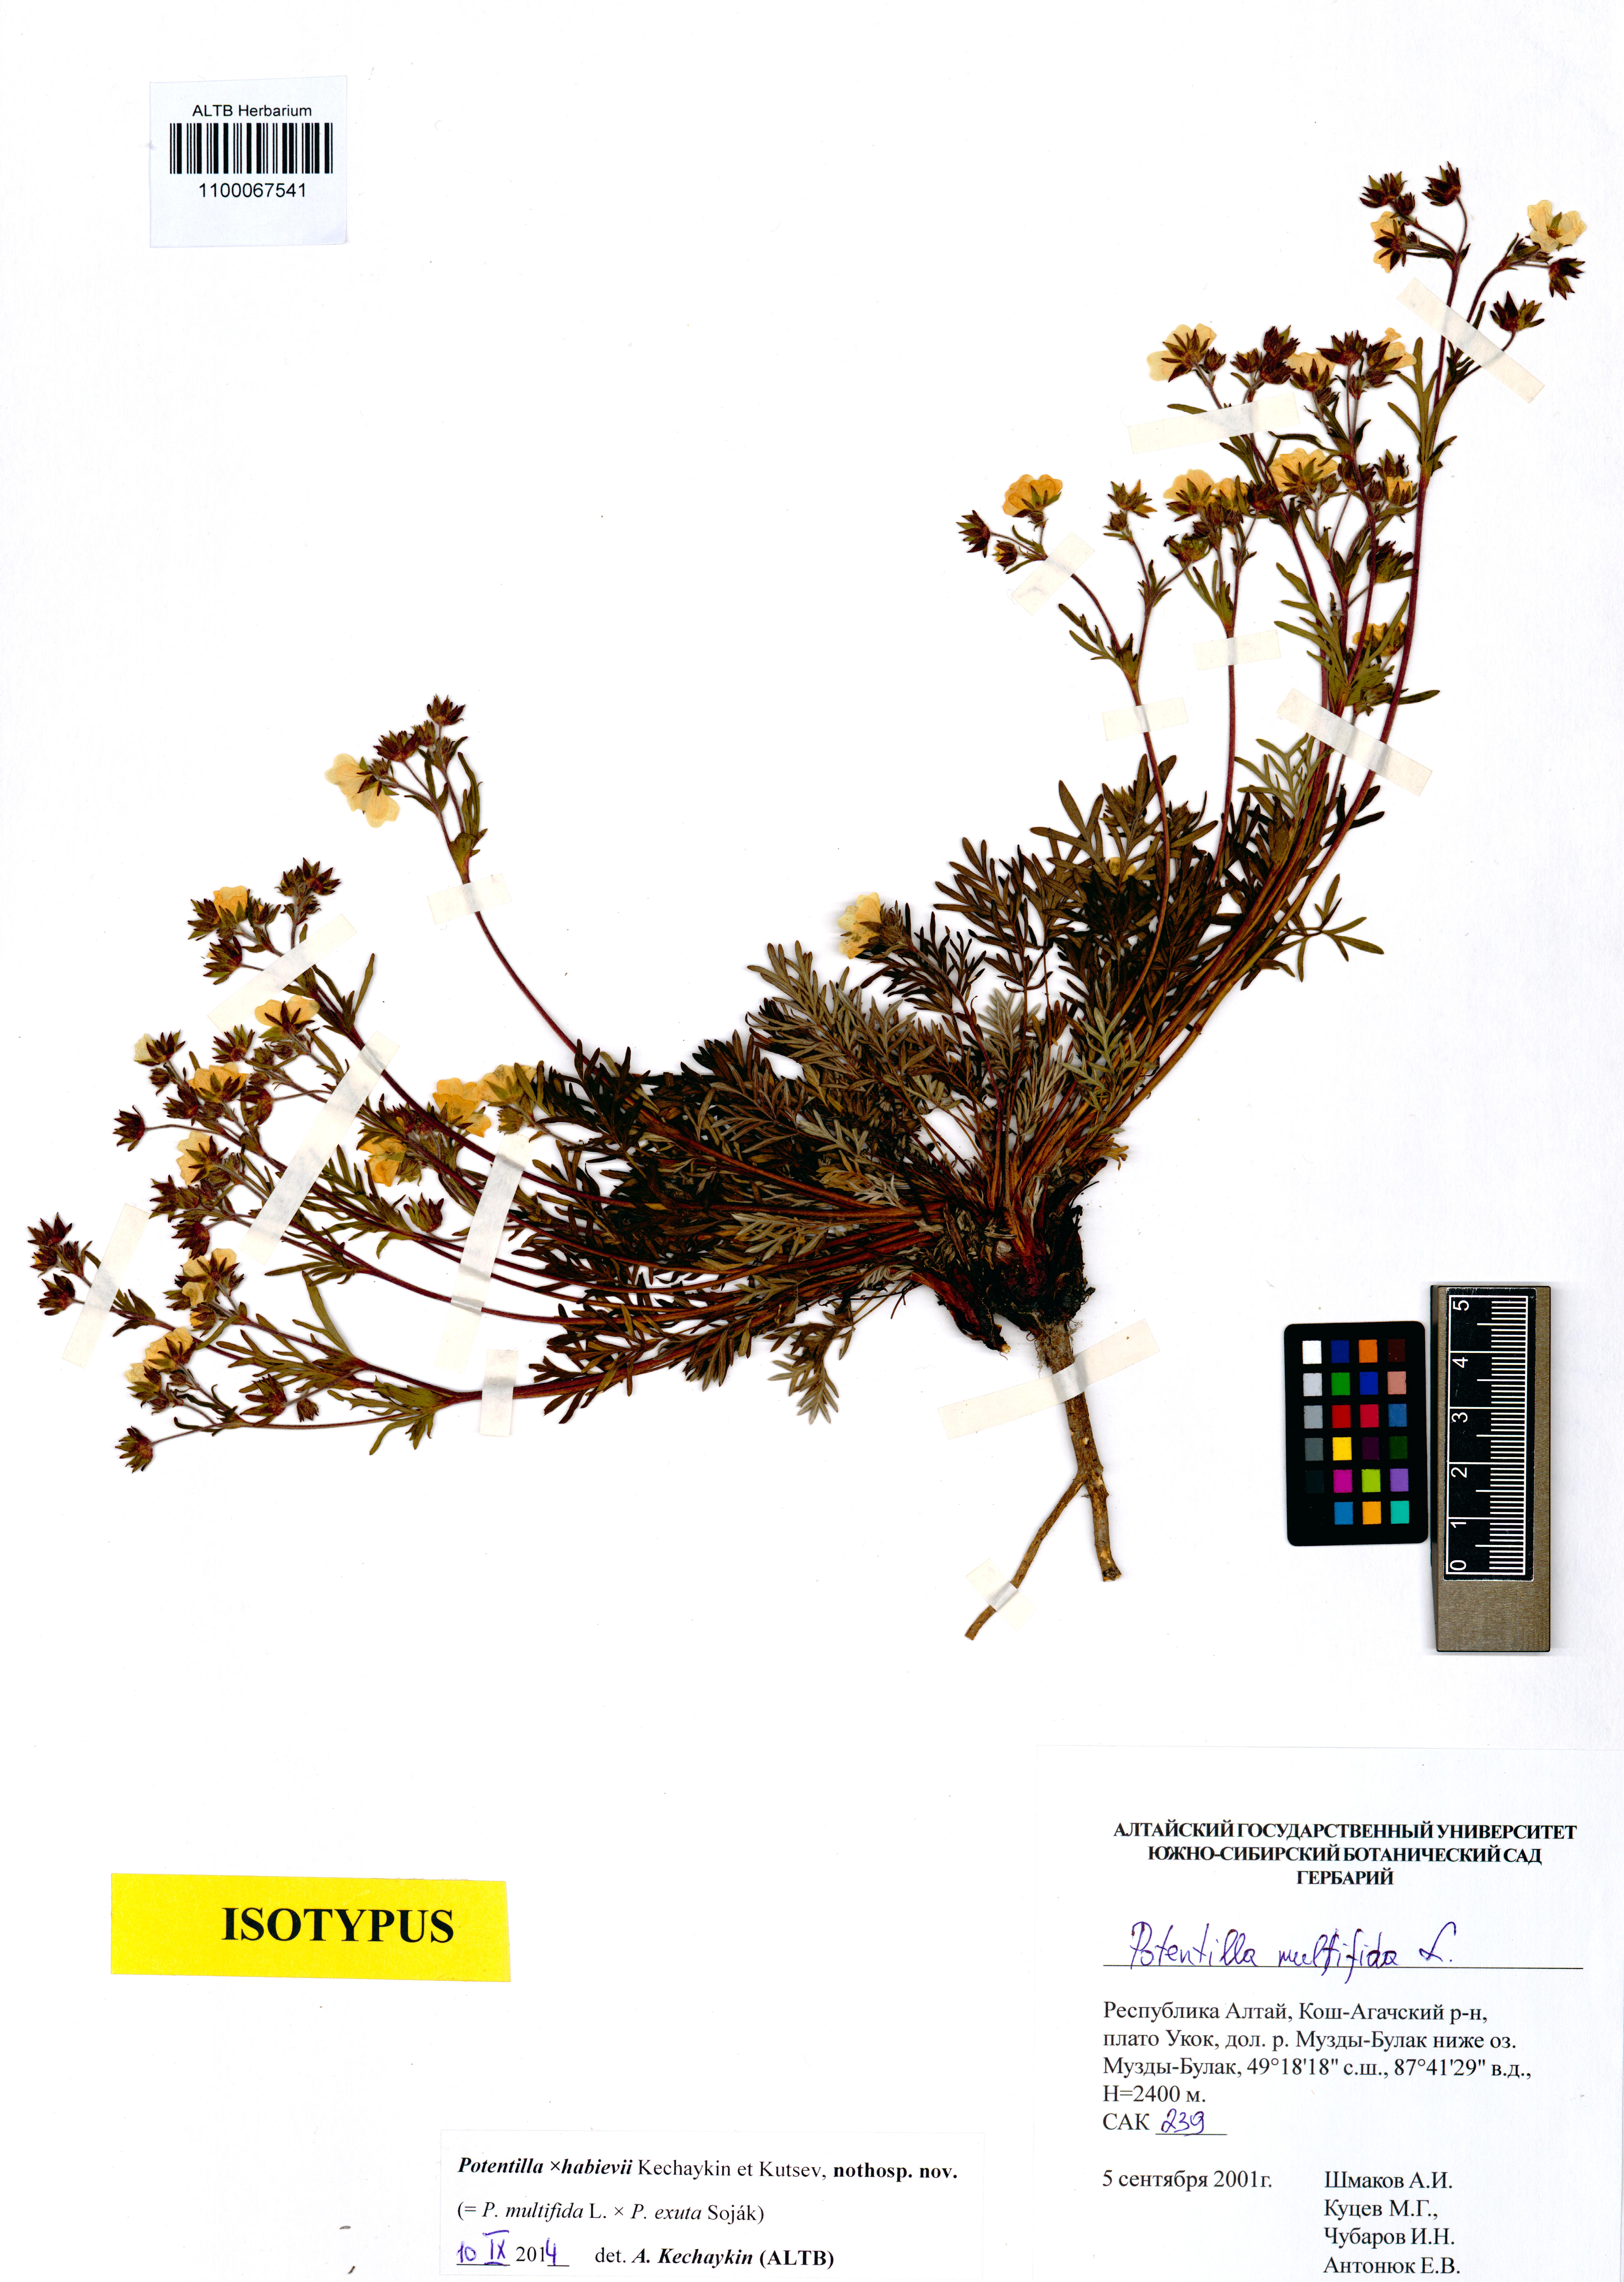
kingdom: Plantae
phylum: Tracheophyta
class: Magnoliopsida
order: Rosales
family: Rosaceae
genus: Potentilla
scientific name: Potentilla habievii
